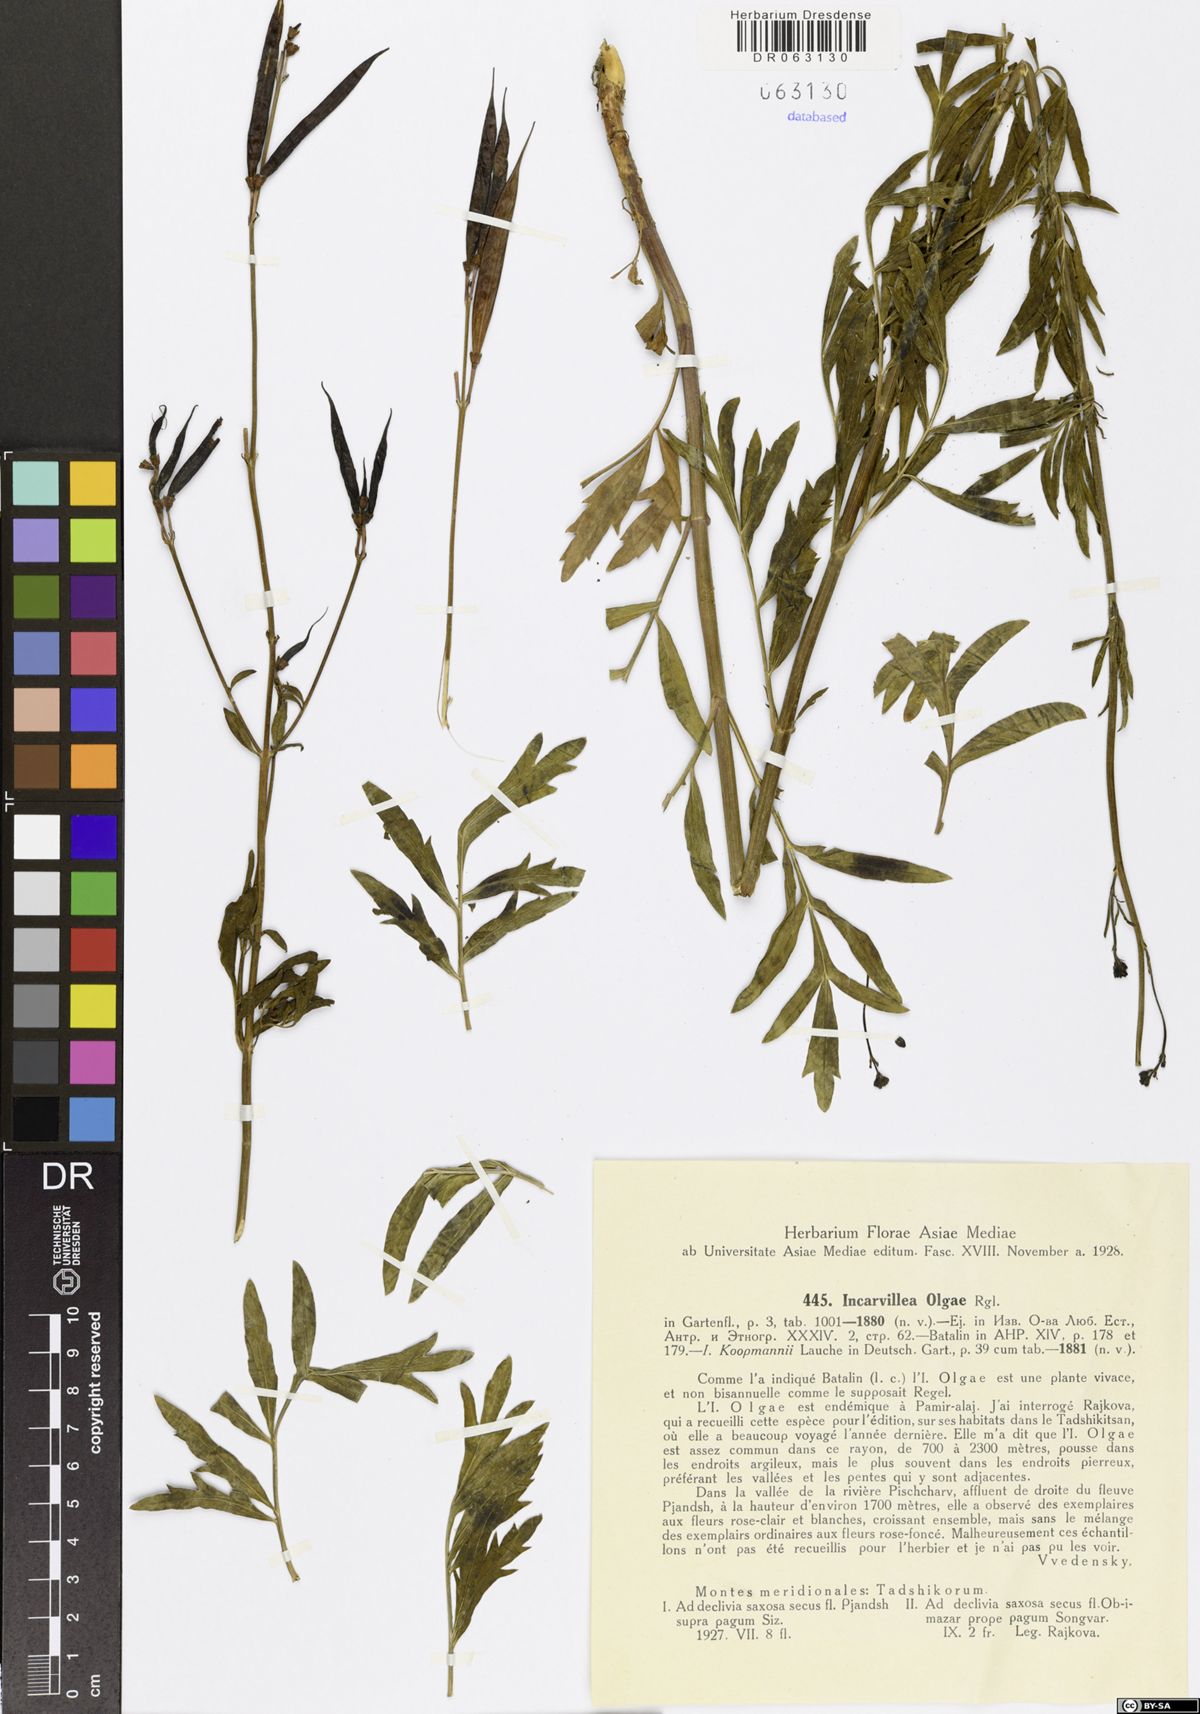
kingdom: Plantae
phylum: Tracheophyta
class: Magnoliopsida
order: Lamiales
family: Bignoniaceae
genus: Incarvillea
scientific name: Incarvillea olgae
